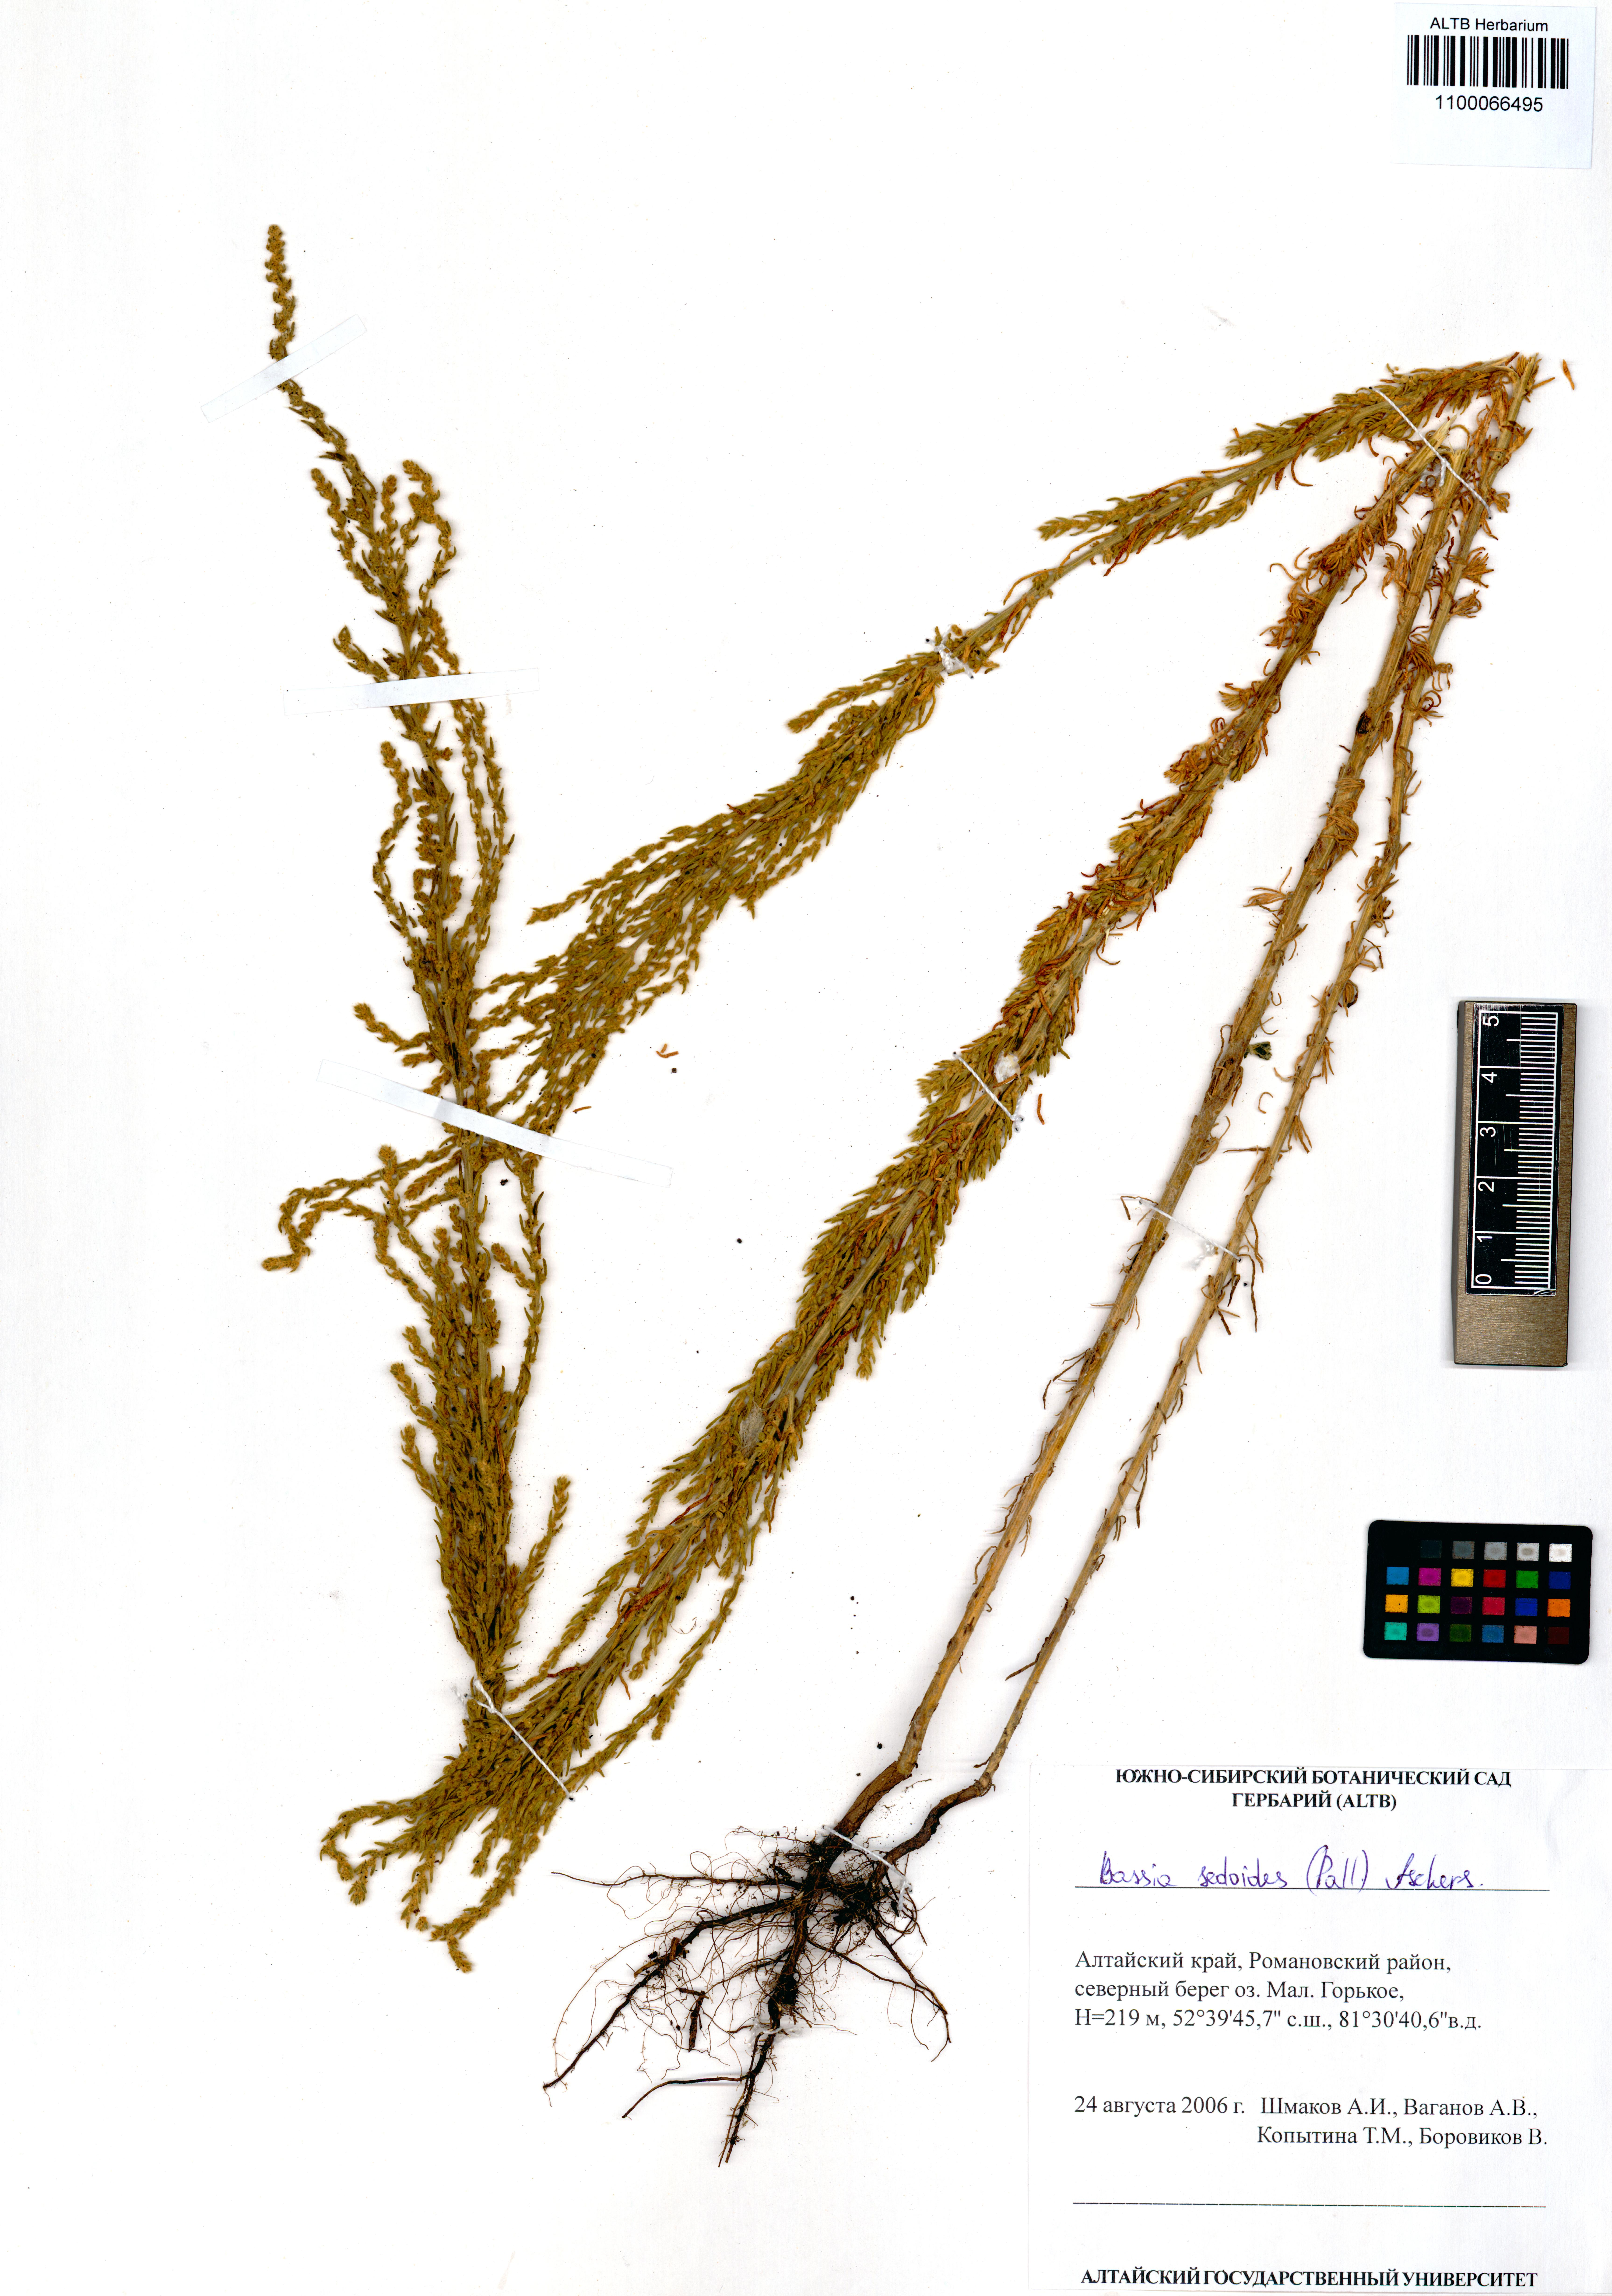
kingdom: Plantae
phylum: Tracheophyta
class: Magnoliopsida
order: Caryophyllales
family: Amaranthaceae
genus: Sedobassia
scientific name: Sedobassia sedoides
